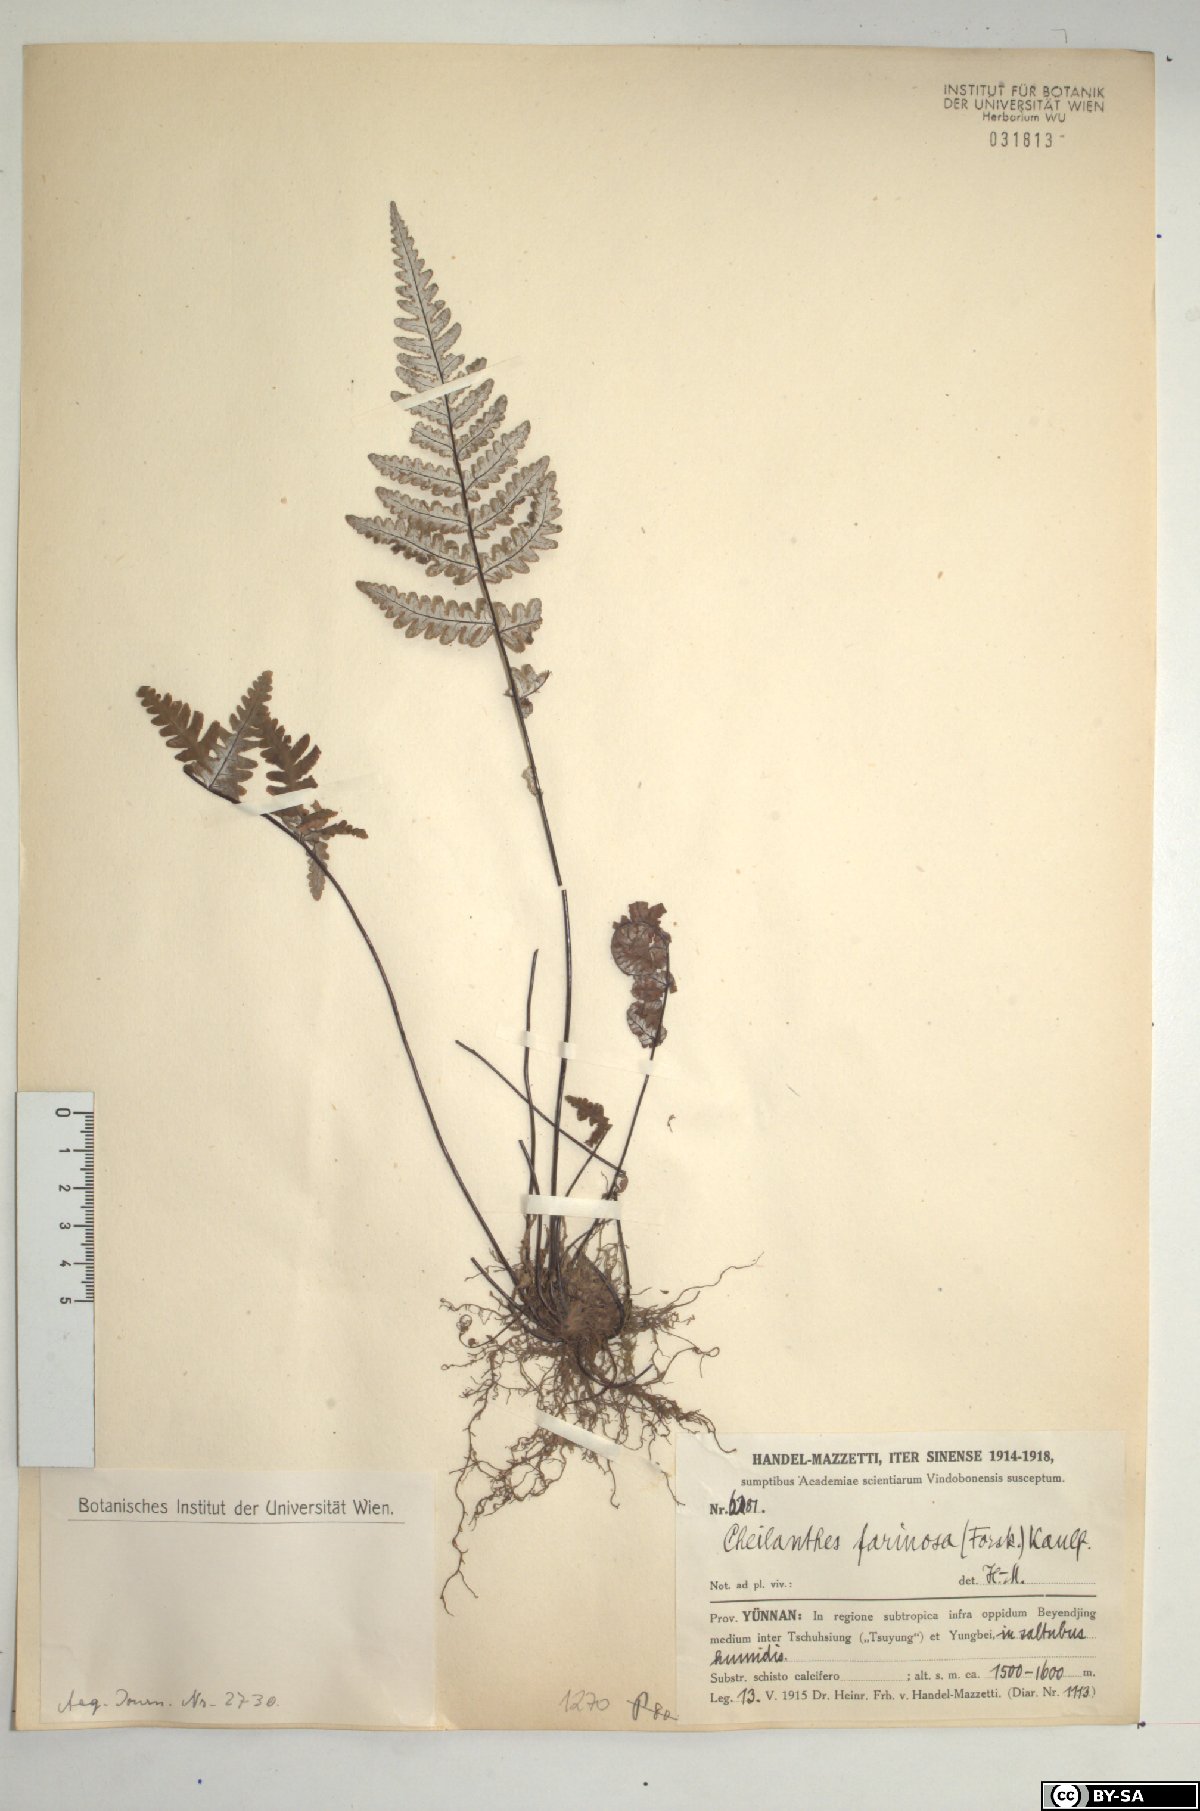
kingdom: Plantae
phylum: Tracheophyta
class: Polypodiopsida
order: Polypodiales
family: Pteridaceae
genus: Aleuritopteris
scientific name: Aleuritopteris farinosa
